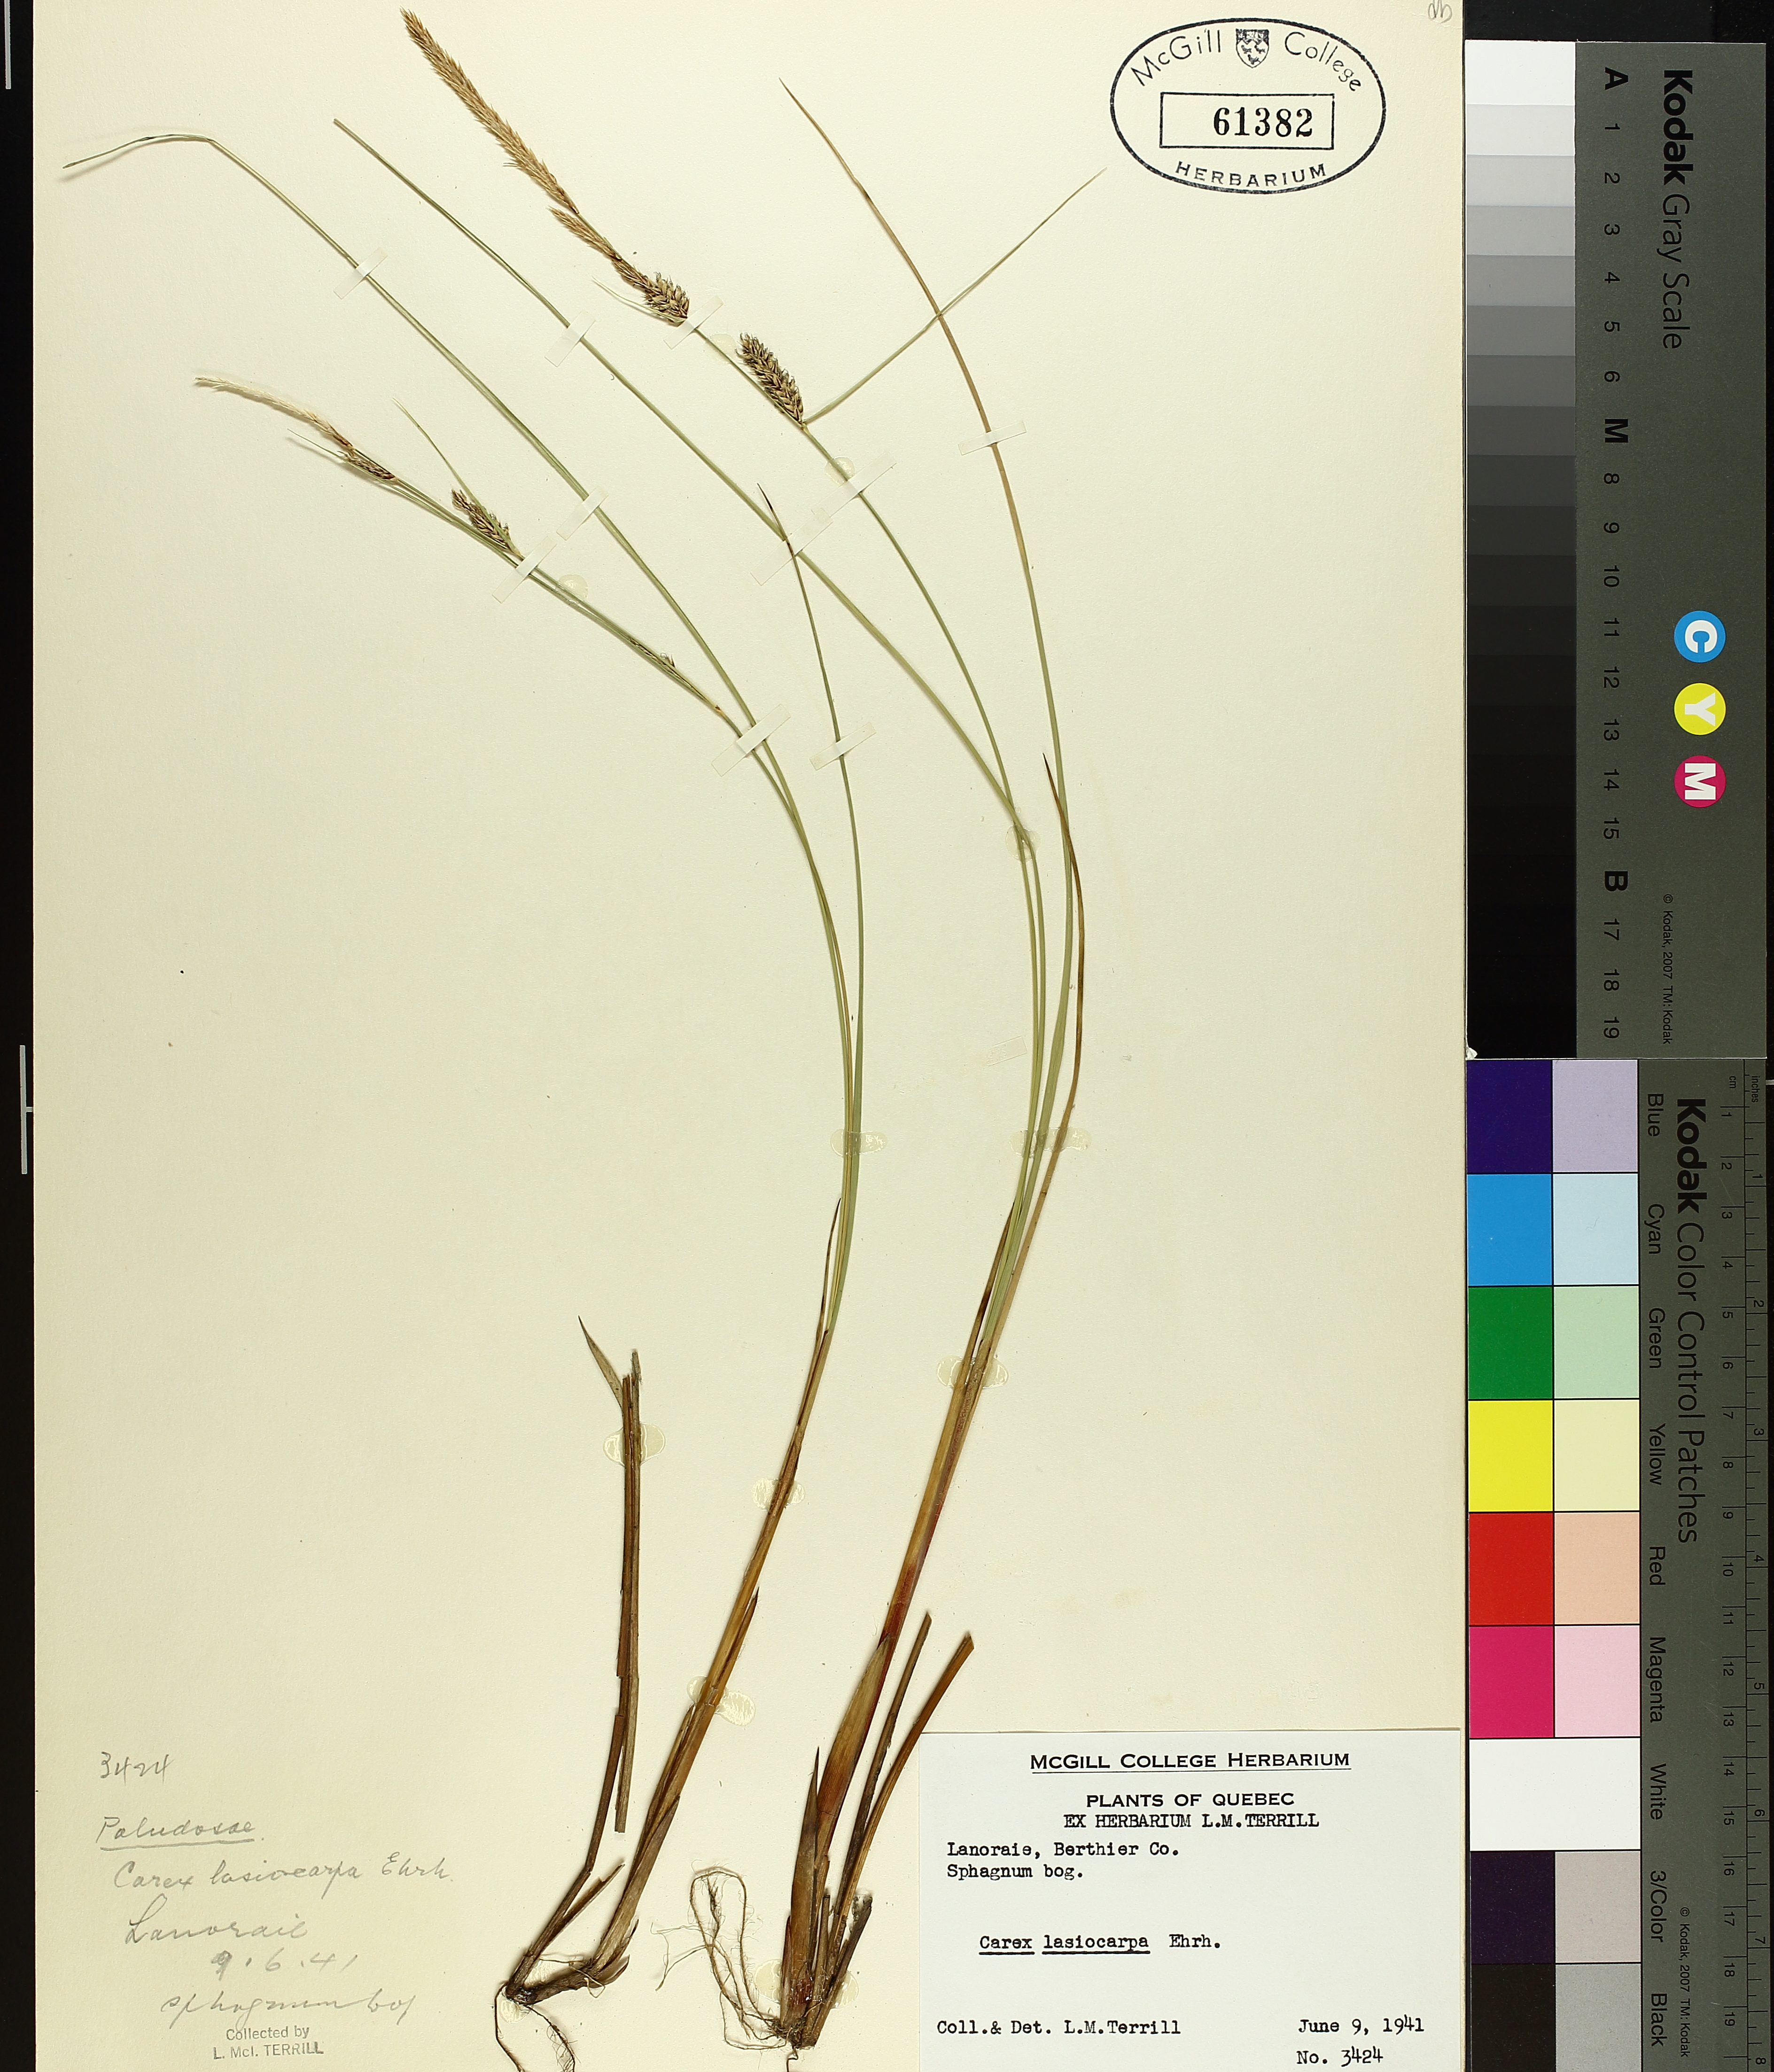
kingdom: Plantae
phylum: Tracheophyta
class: Liliopsida
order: Poales
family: Cyperaceae
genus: Carex
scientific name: Carex lasiocarpa
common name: Slender sedge
